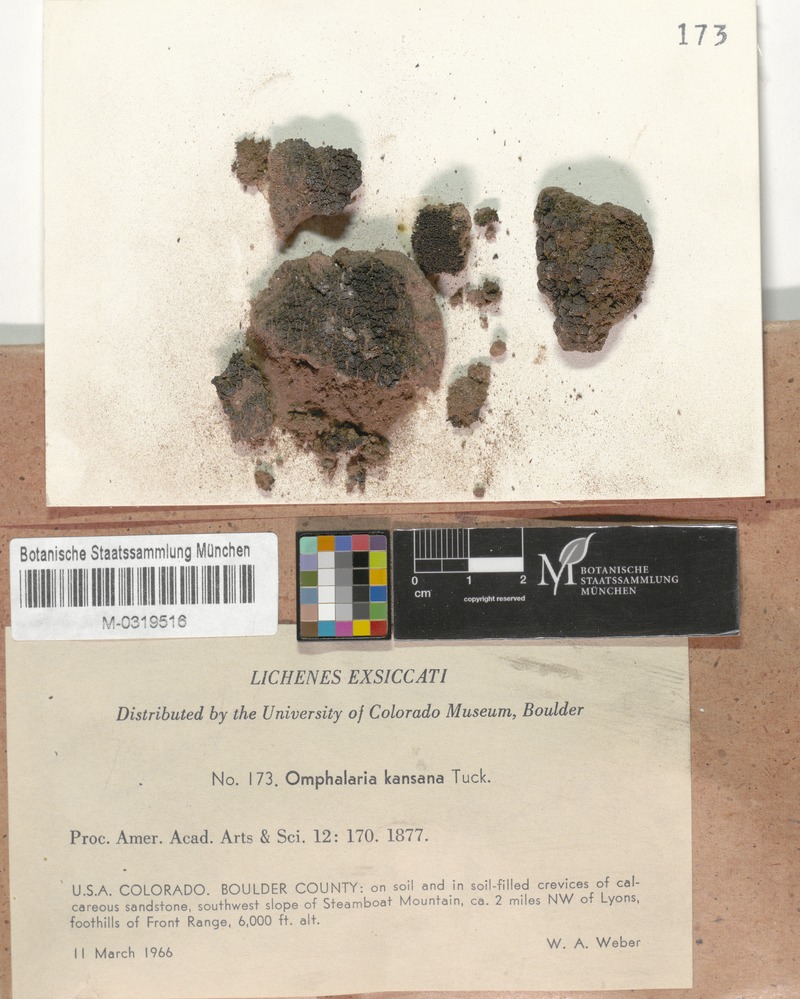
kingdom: Fungi
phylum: Ascomycota
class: Lichinomycetes
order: Lichinales
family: Lichinaceae
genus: Peccania
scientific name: Peccania kansana
